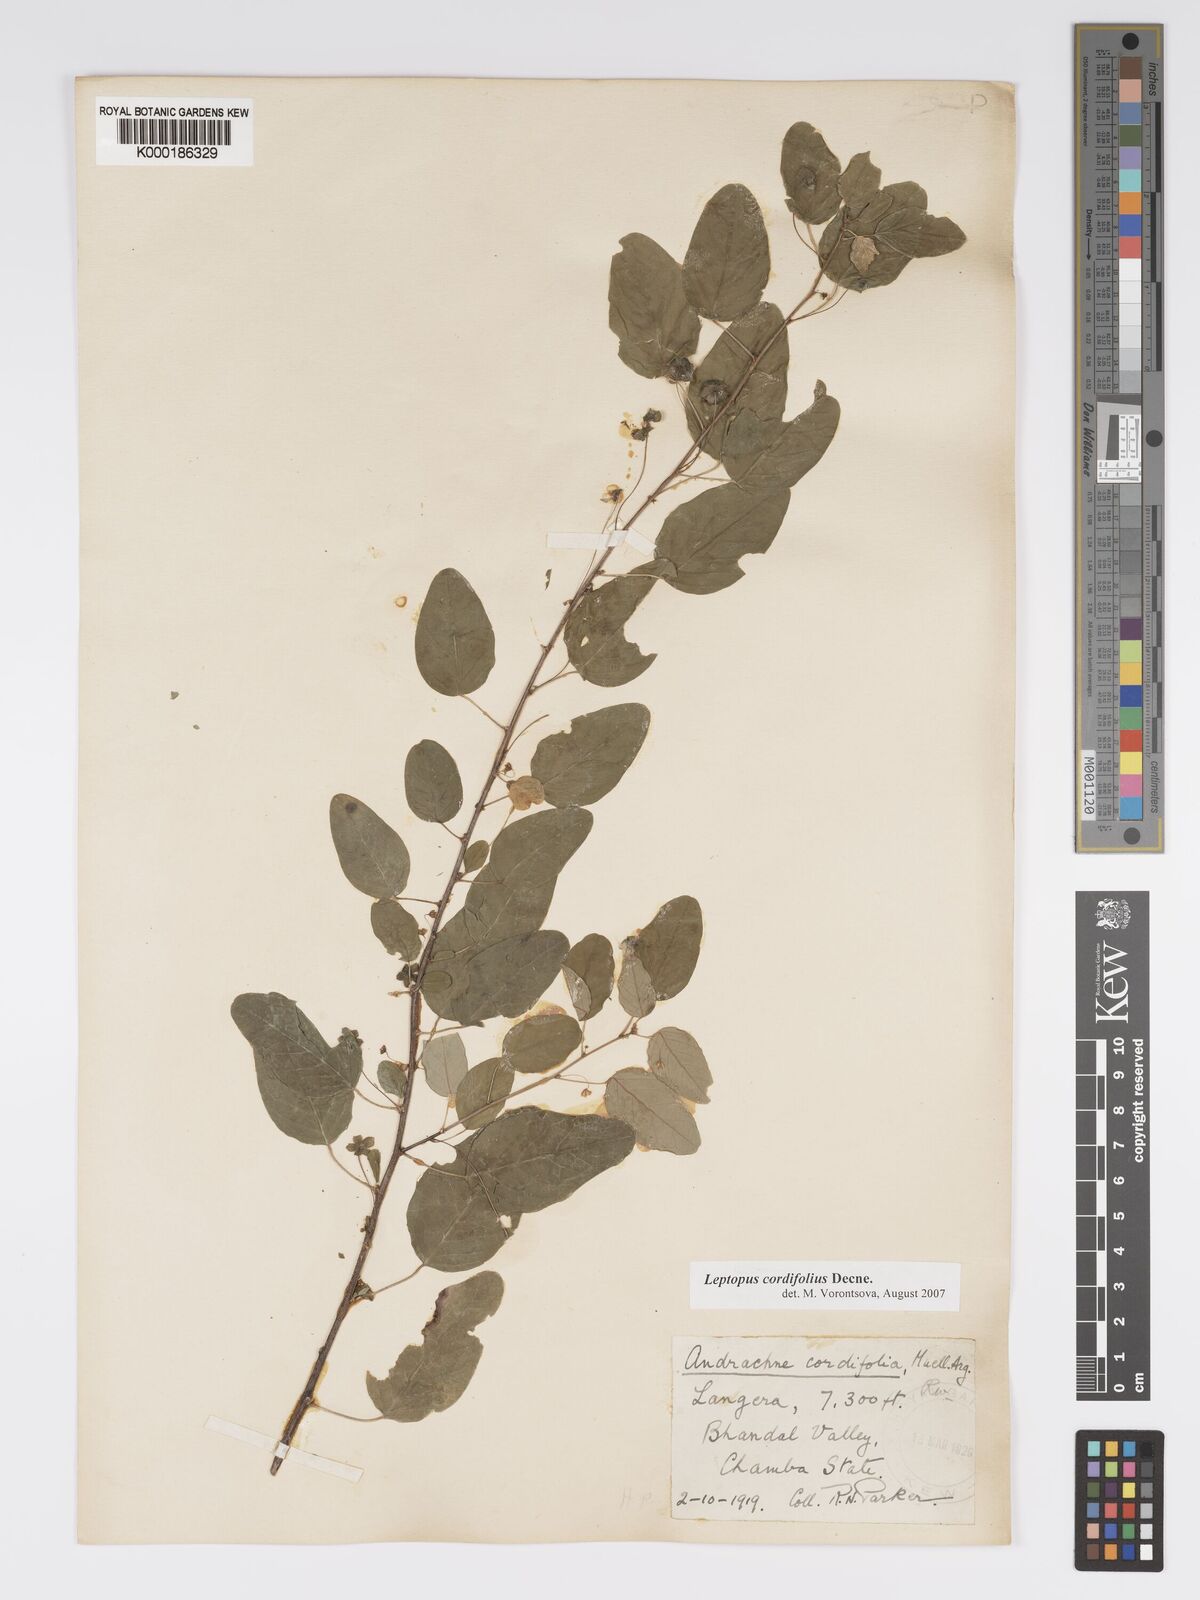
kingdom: Plantae
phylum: Tracheophyta
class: Magnoliopsida
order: Malpighiales
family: Phyllanthaceae
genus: Leptopus
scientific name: Leptopus cordifolius
